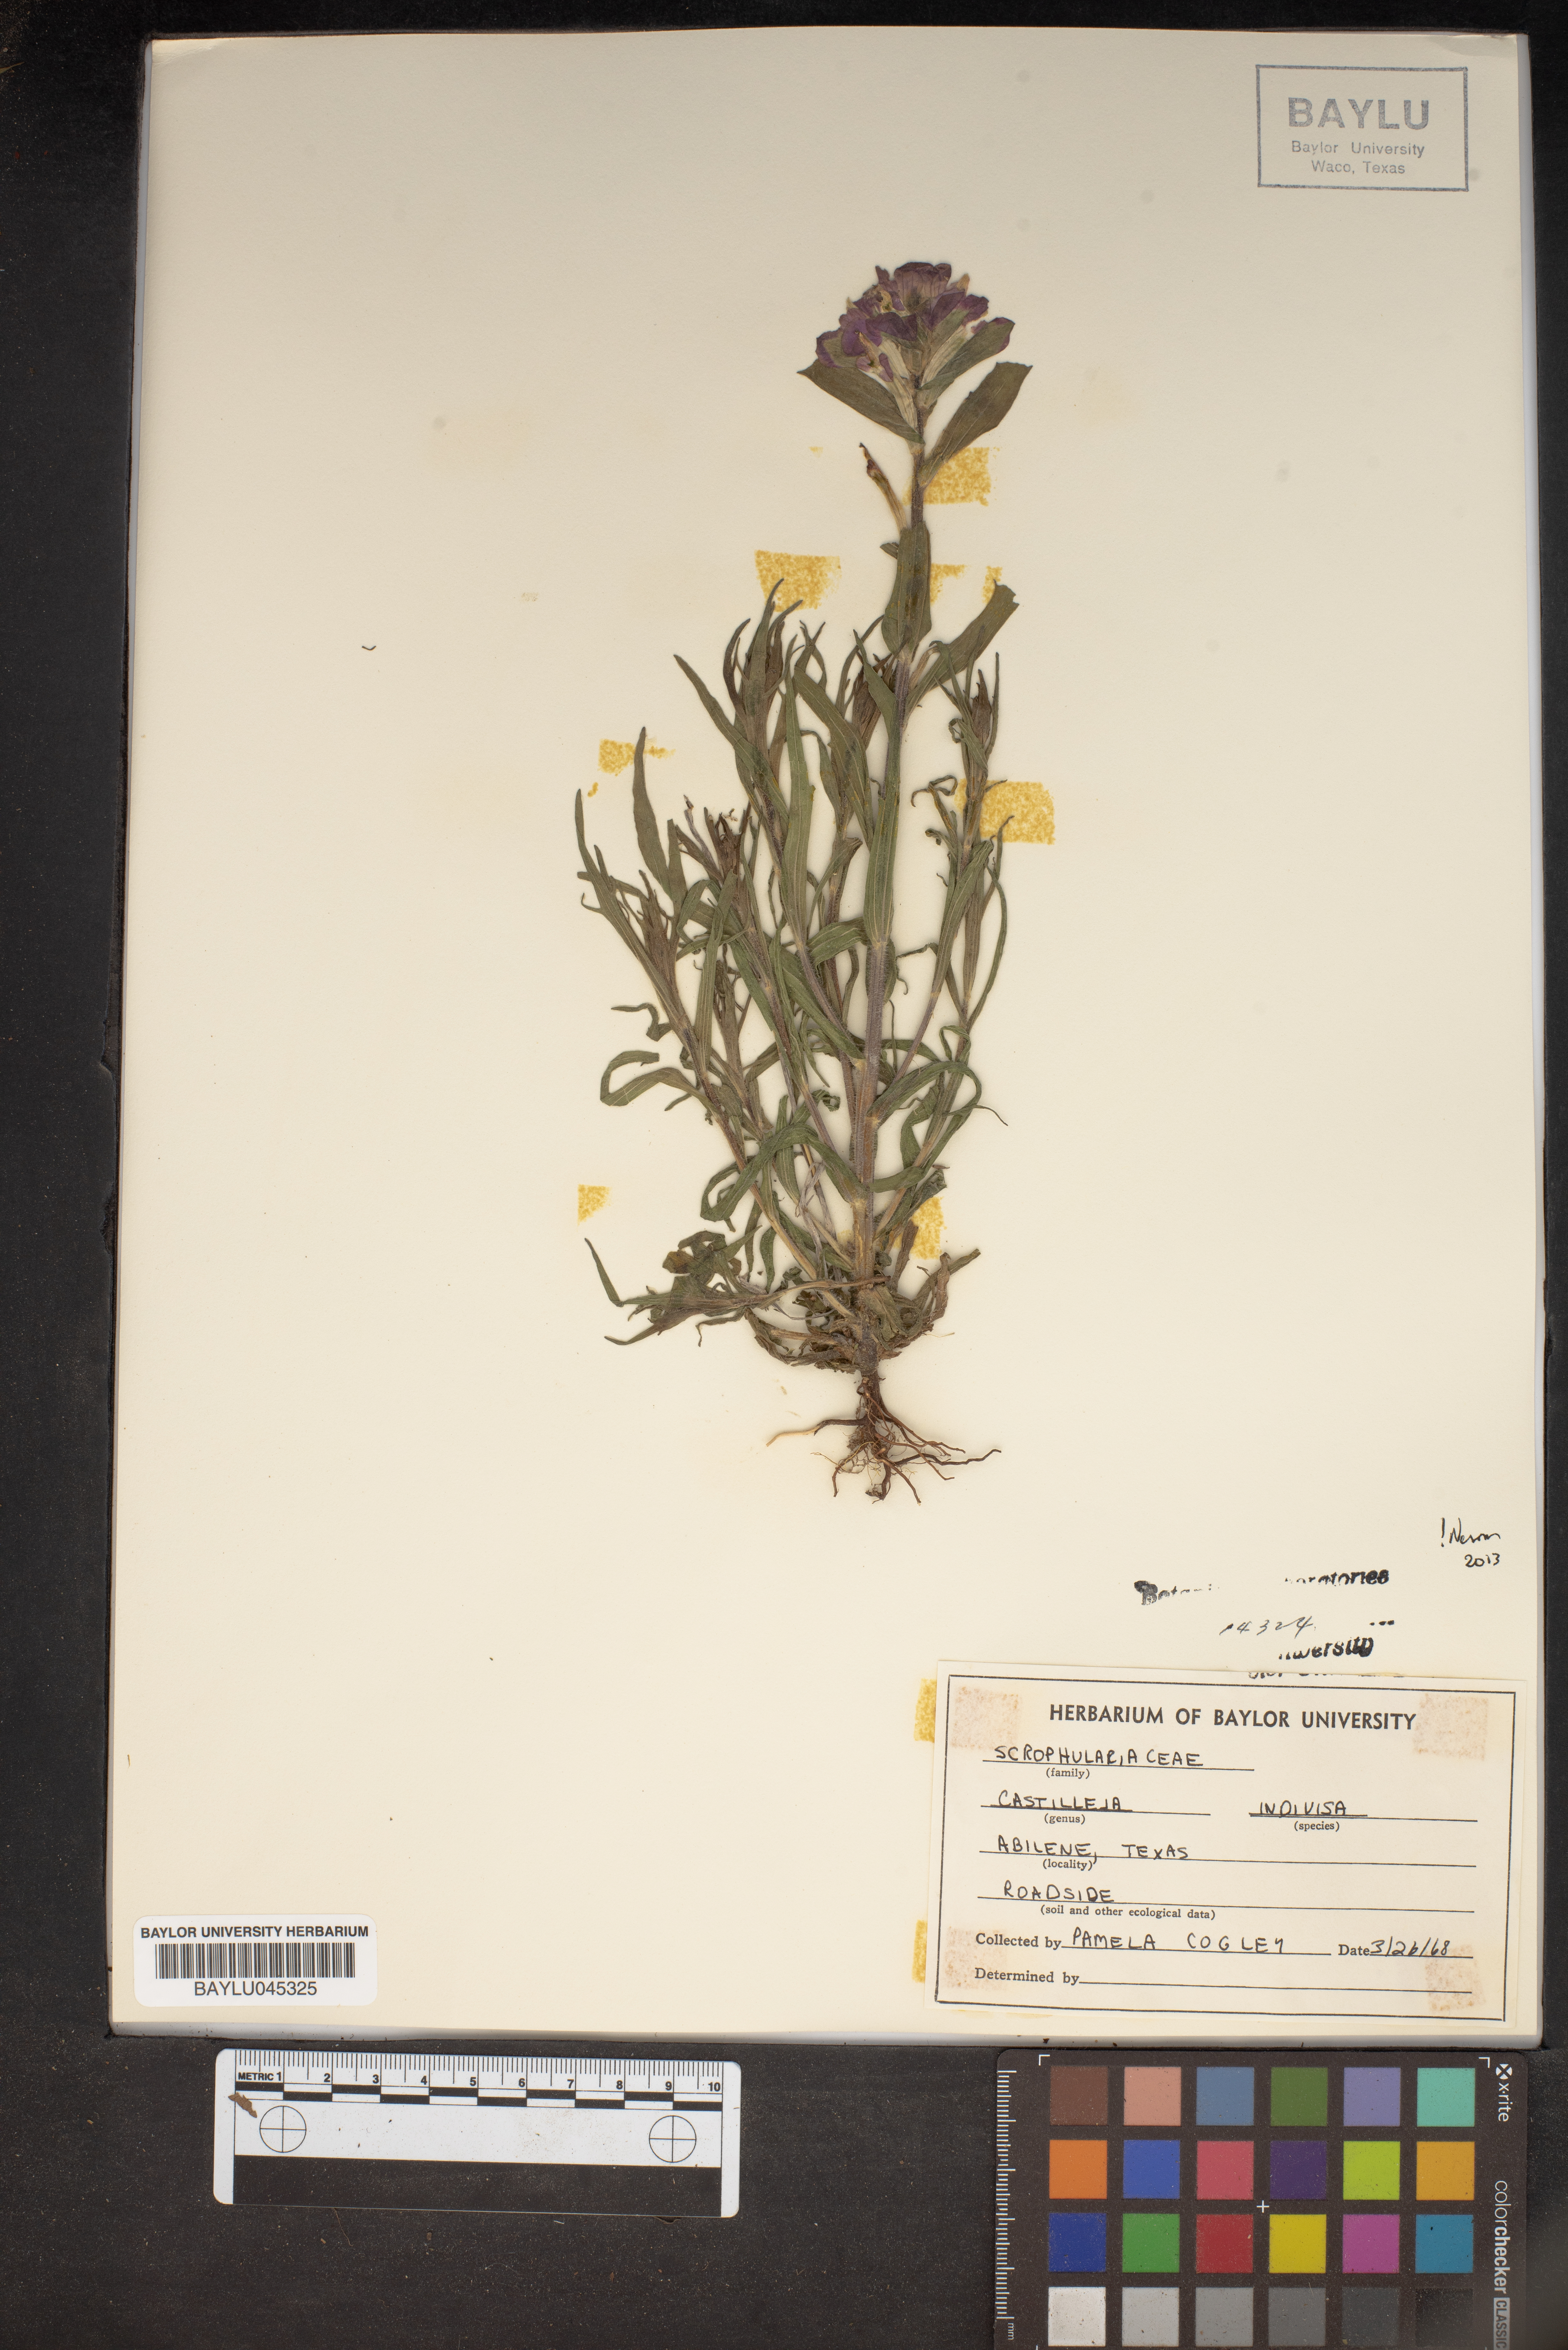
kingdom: Plantae
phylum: Tracheophyta
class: Magnoliopsida
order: Lamiales
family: Orobanchaceae
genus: Castilleja
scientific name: Castilleja indivisa
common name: Texas paintbrush
